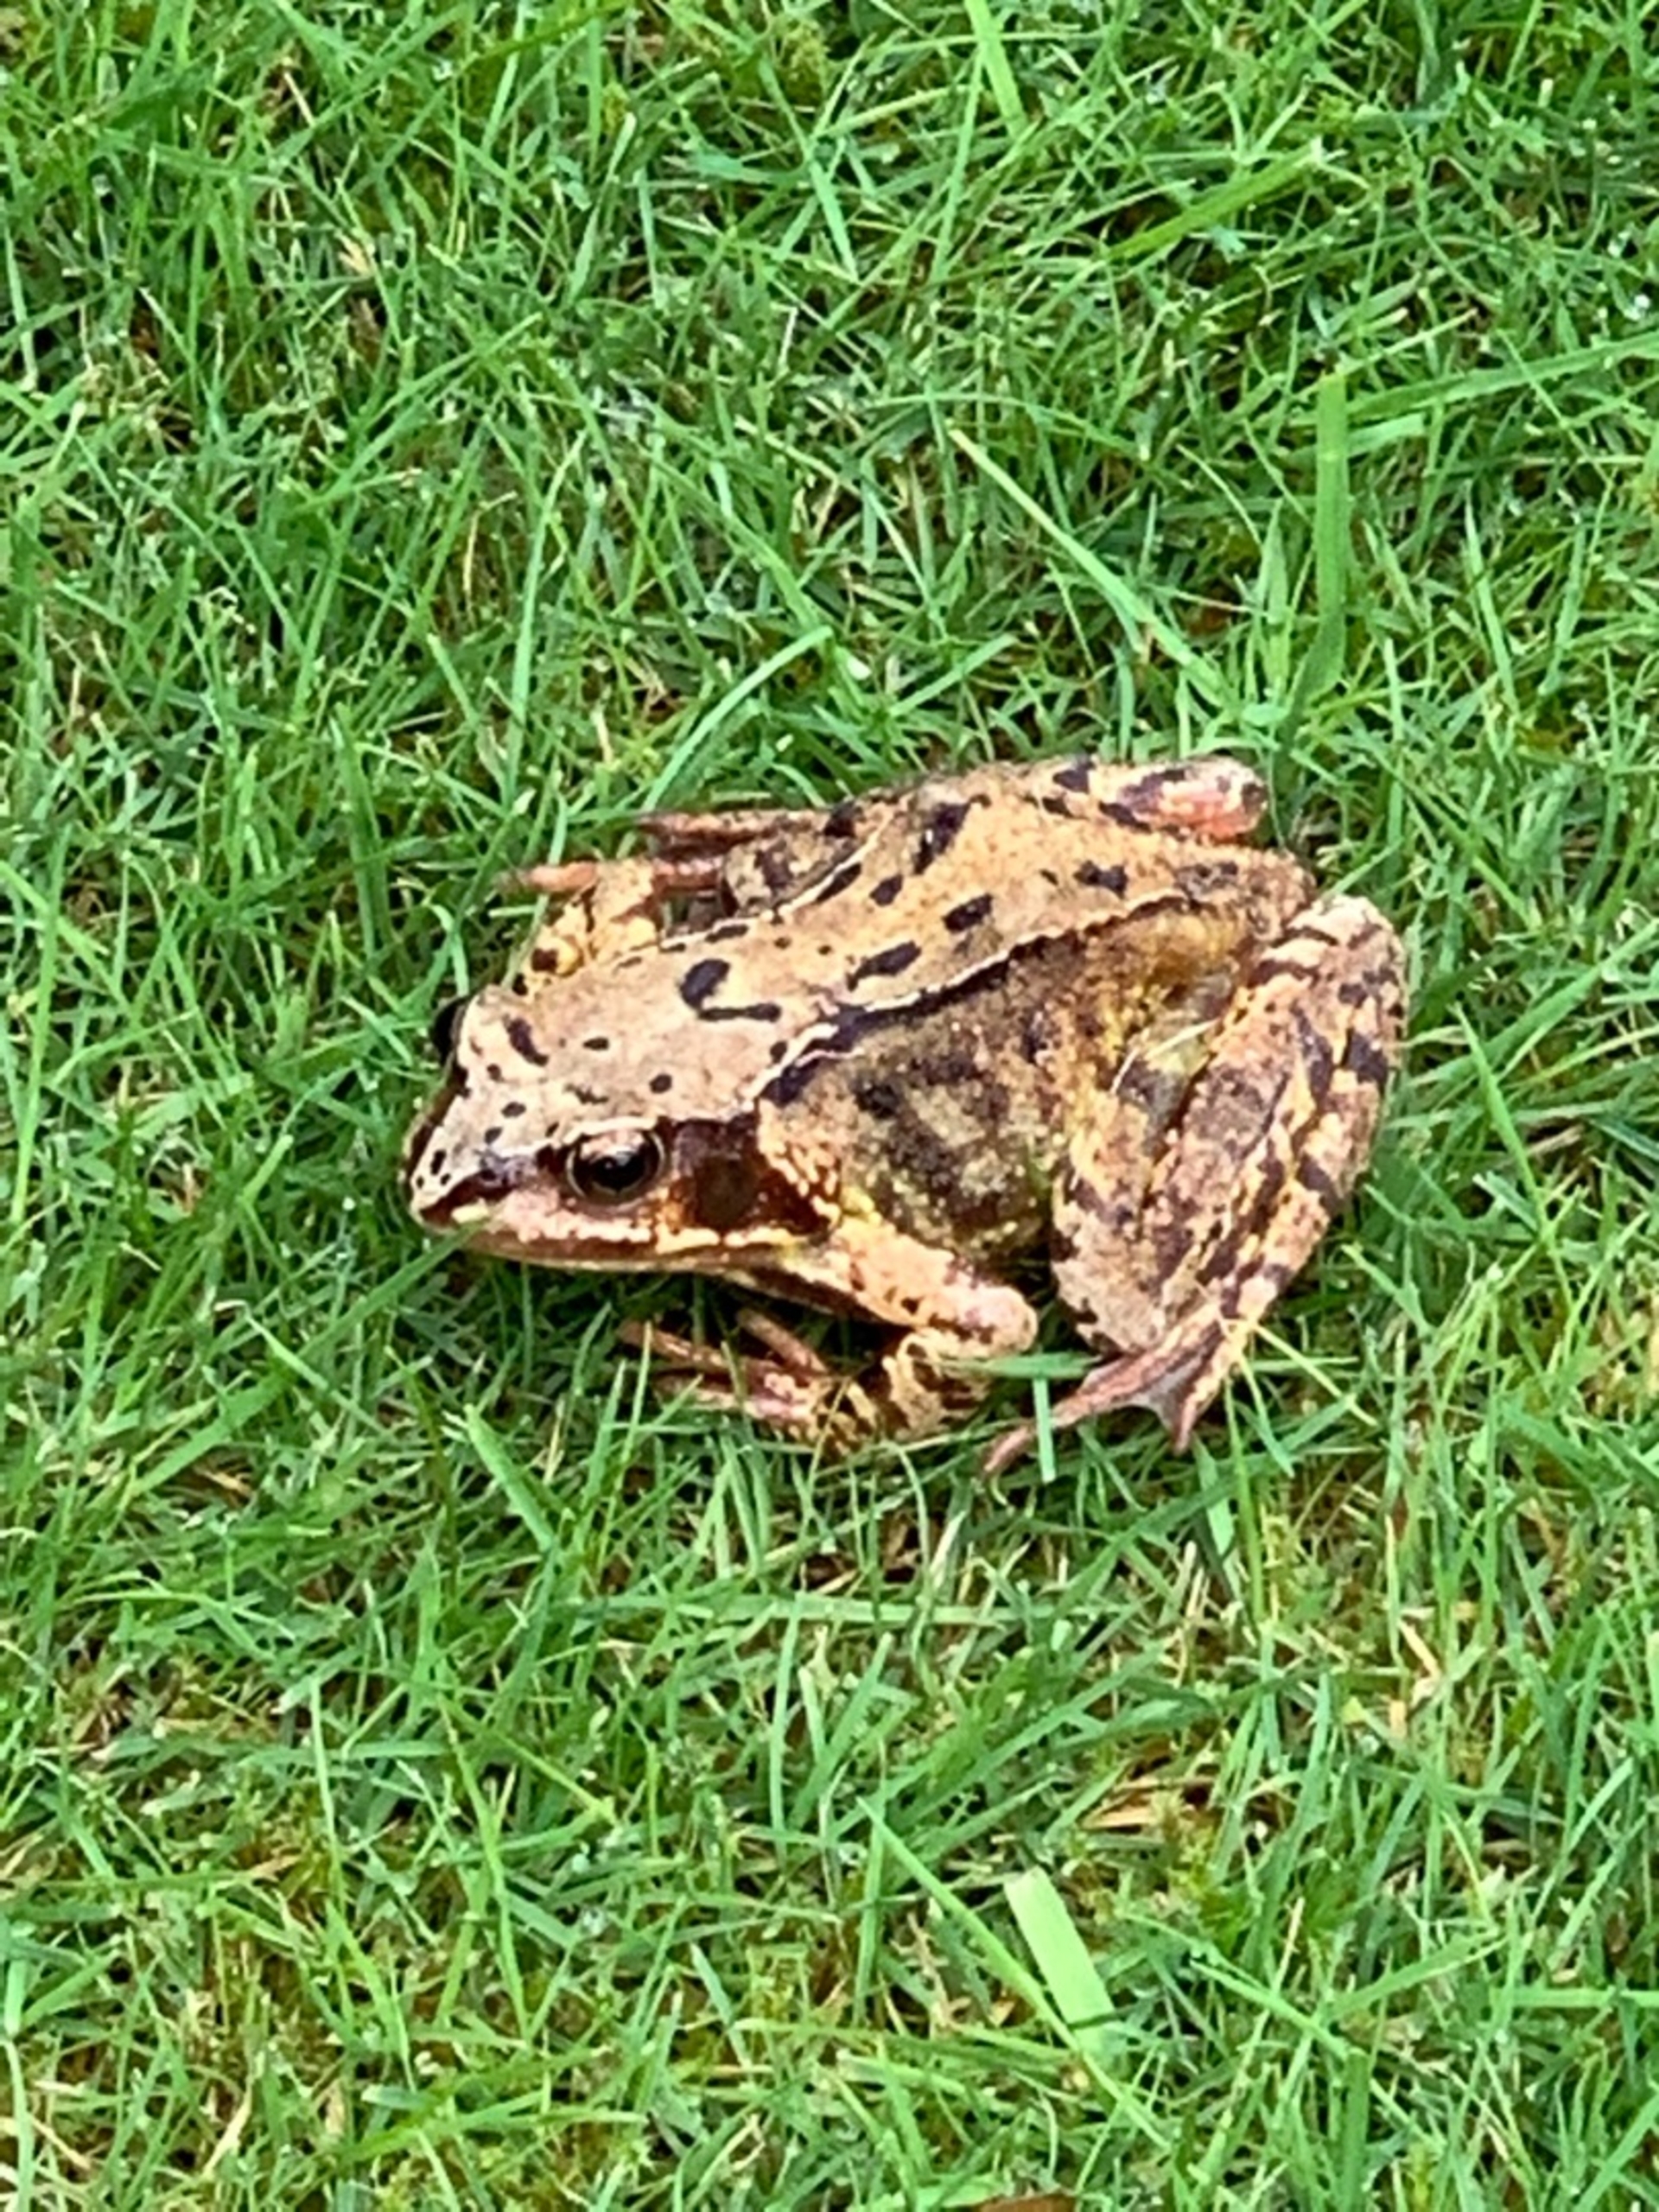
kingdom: Animalia
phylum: Chordata
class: Amphibia
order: Anura
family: Ranidae
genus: Rana
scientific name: Rana temporaria
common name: Butsnudet frø
